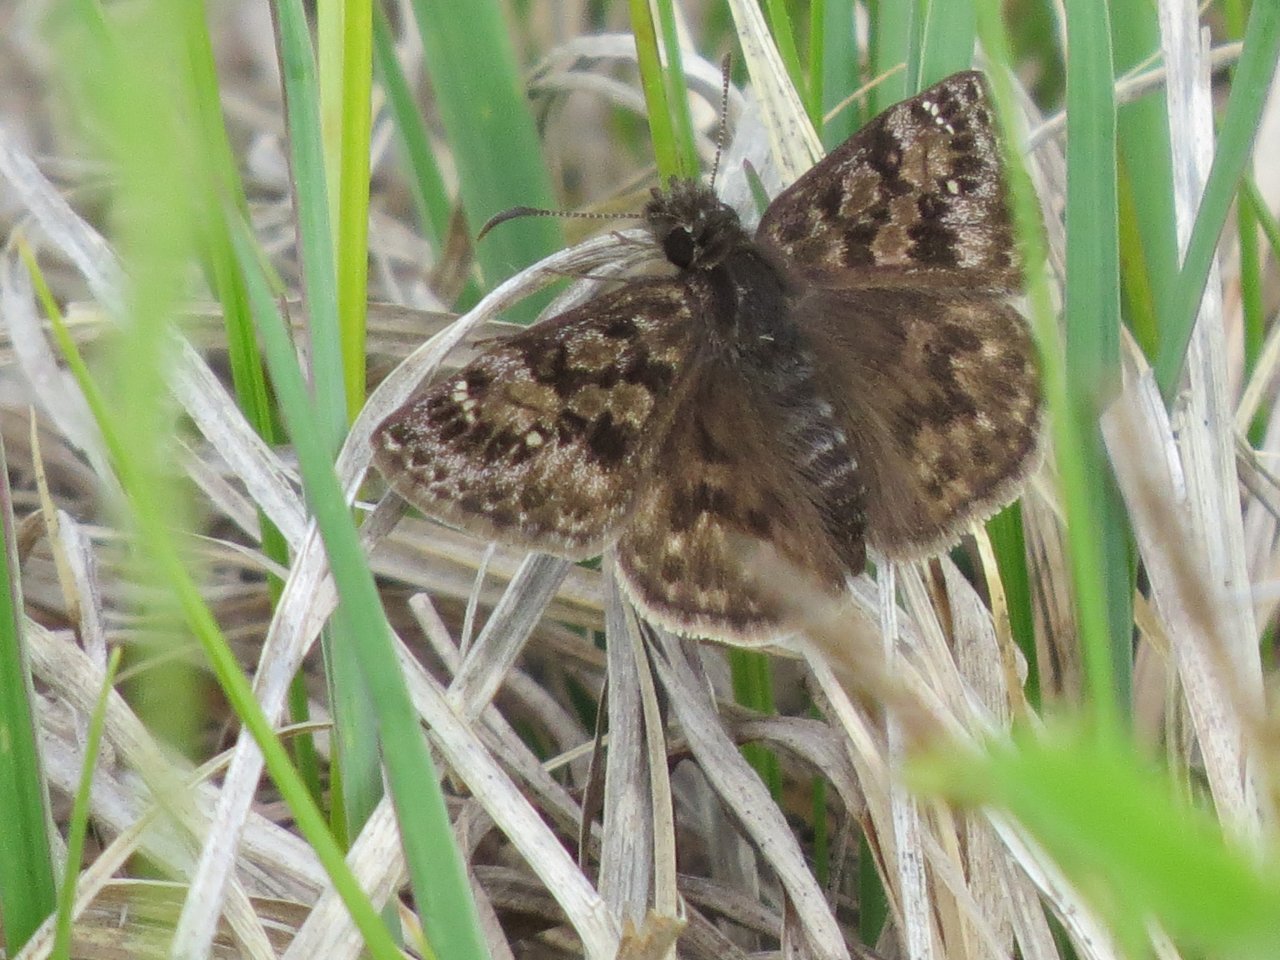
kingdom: Animalia
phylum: Arthropoda
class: Insecta
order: Lepidoptera
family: Hesperiidae
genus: Erynnis
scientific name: Erynnis martialis
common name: Mottled Duskywing
